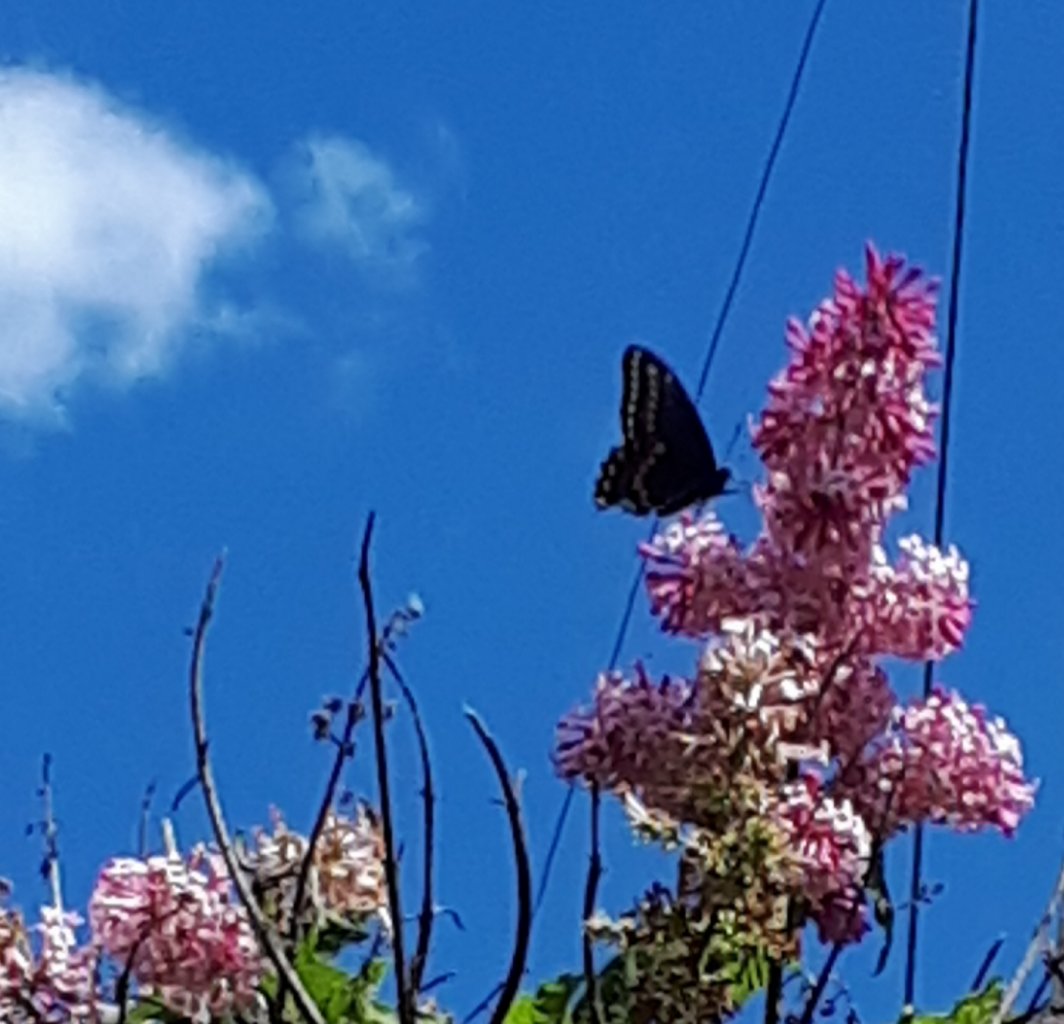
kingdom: Animalia
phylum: Arthropoda
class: Insecta
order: Lepidoptera
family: Papilionidae
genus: Papilio
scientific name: Papilio polyxenes
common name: Black Swallowtail
